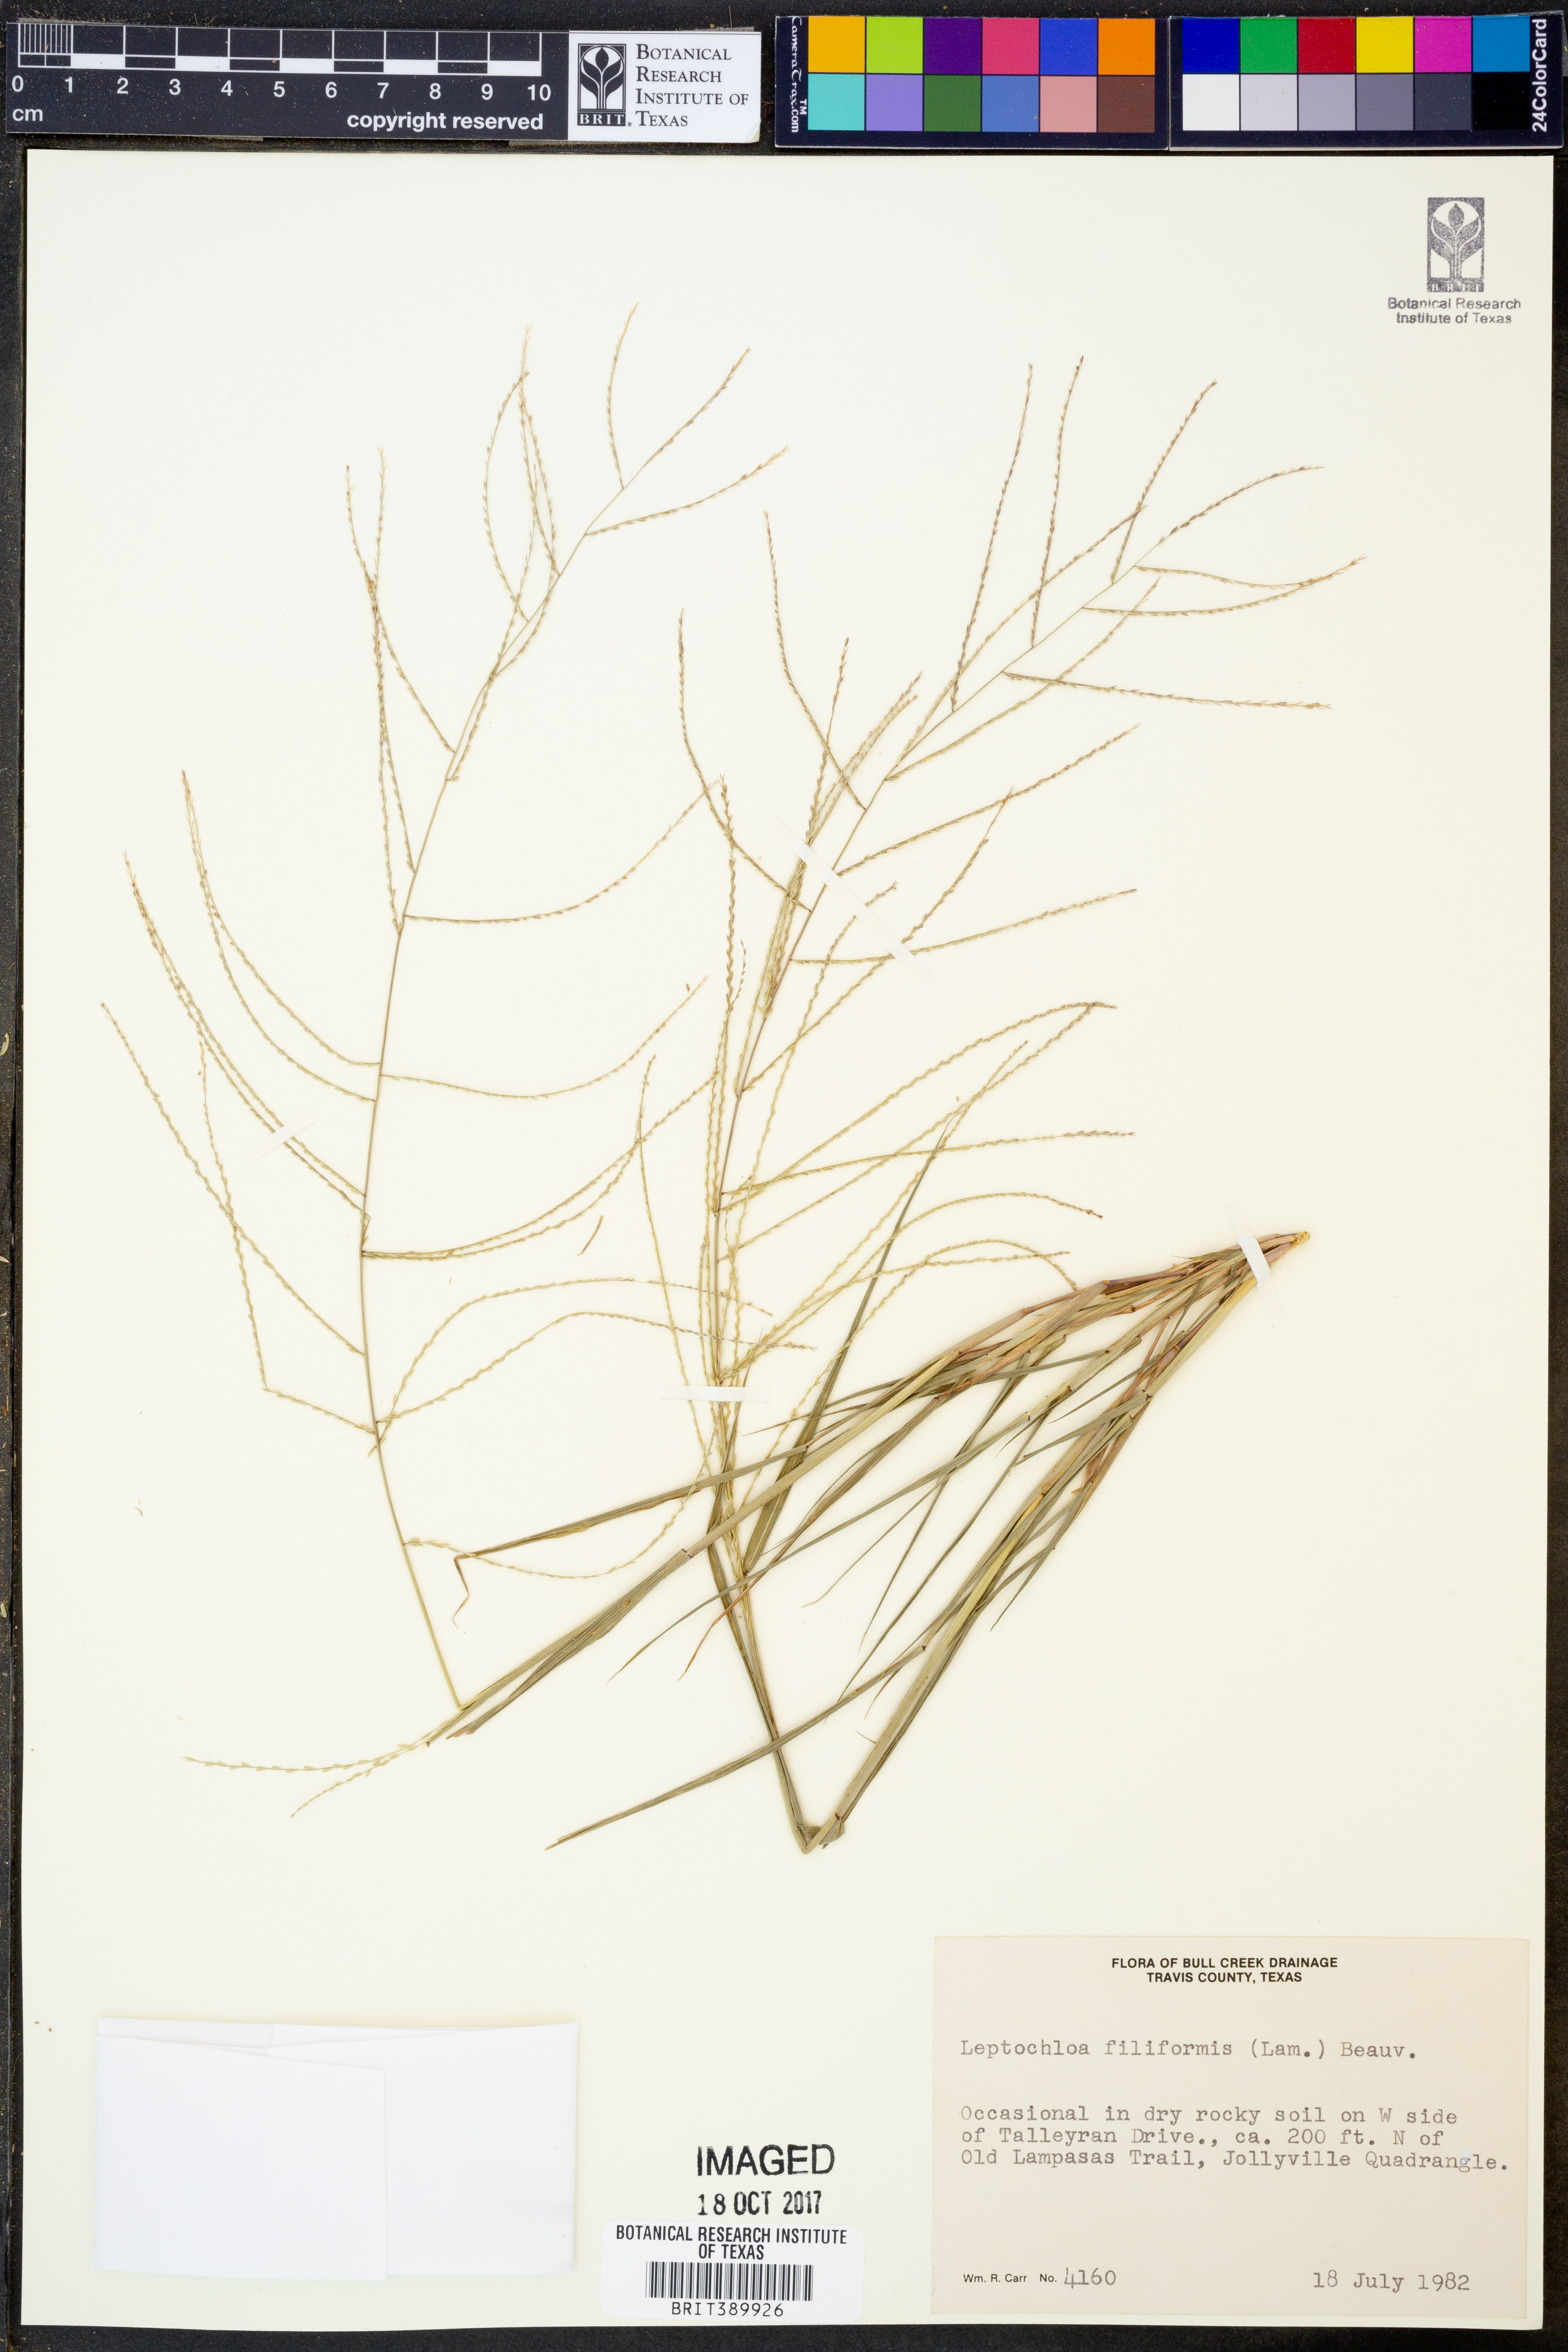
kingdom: Plantae
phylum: Tracheophyta
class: Liliopsida
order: Poales
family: Poaceae
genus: Leptochloa
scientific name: Leptochloa mucronata
